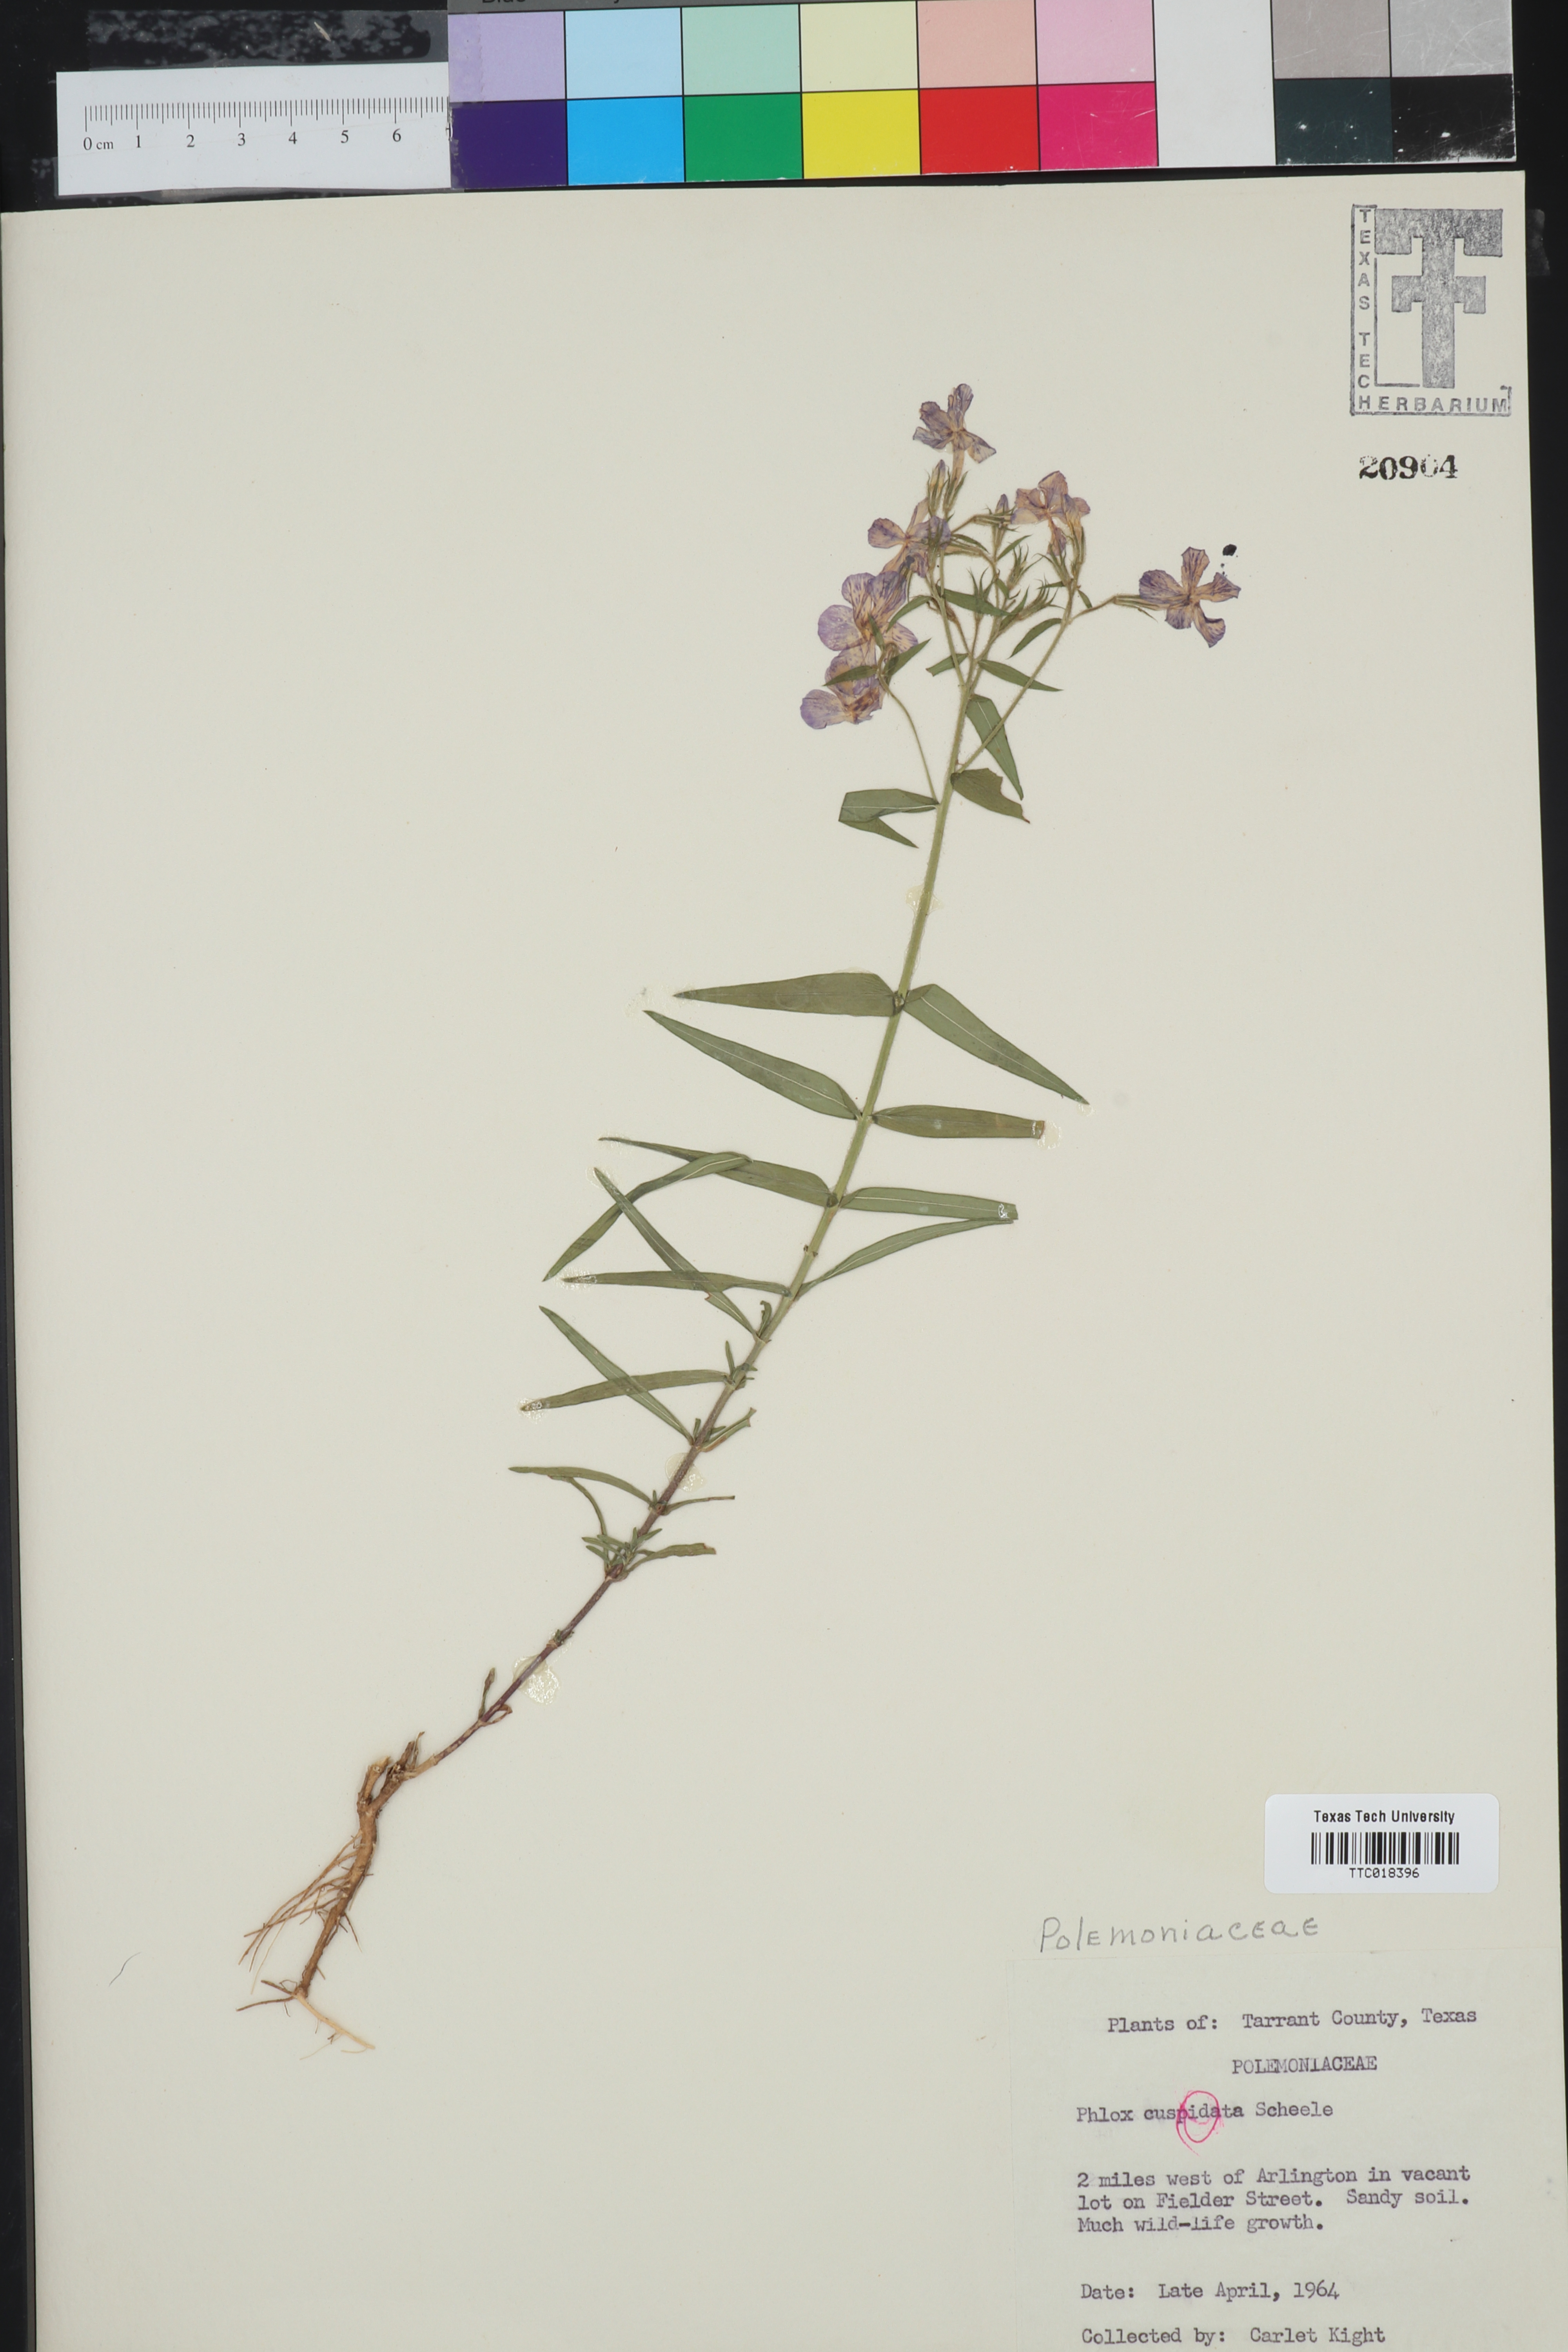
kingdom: Plantae
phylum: Tracheophyta
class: Magnoliopsida
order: Ericales
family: Polemoniaceae
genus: Phlox
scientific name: Phlox cuspidata
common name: Pointed phlox
